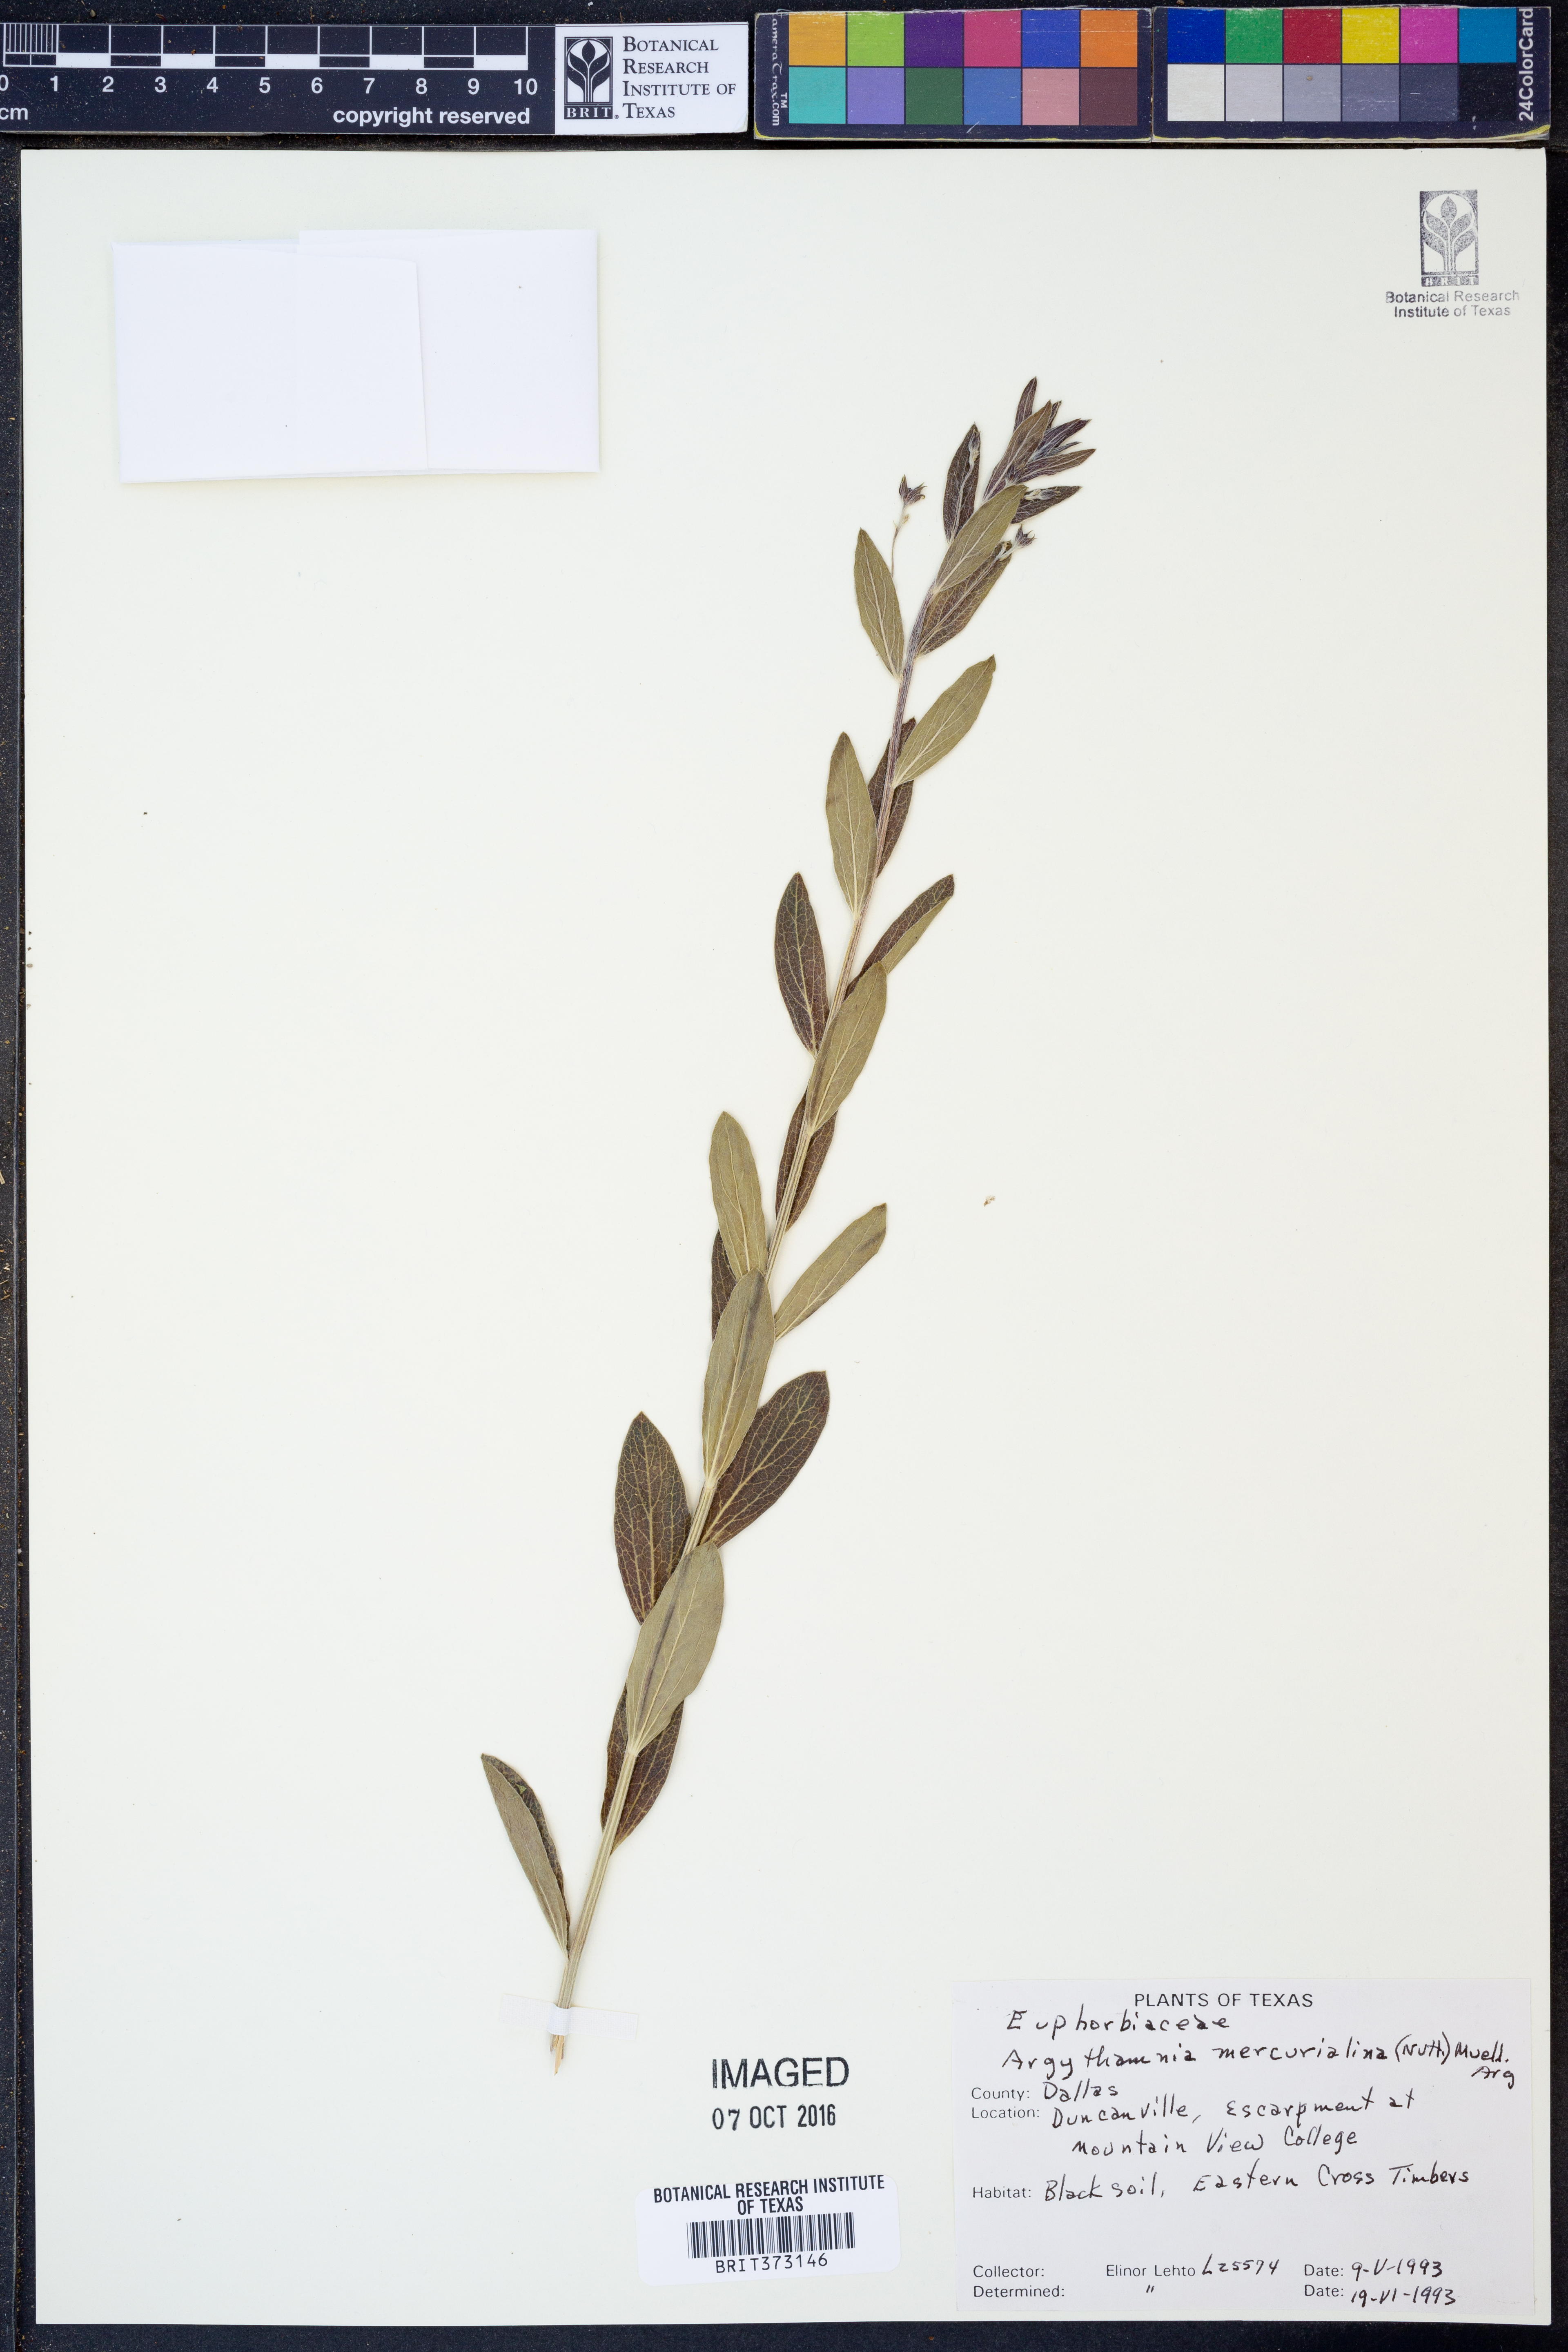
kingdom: Plantae
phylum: Tracheophyta
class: Magnoliopsida
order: Malpighiales
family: Euphorbiaceae
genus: Ditaxis
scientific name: Ditaxis mercurialina
